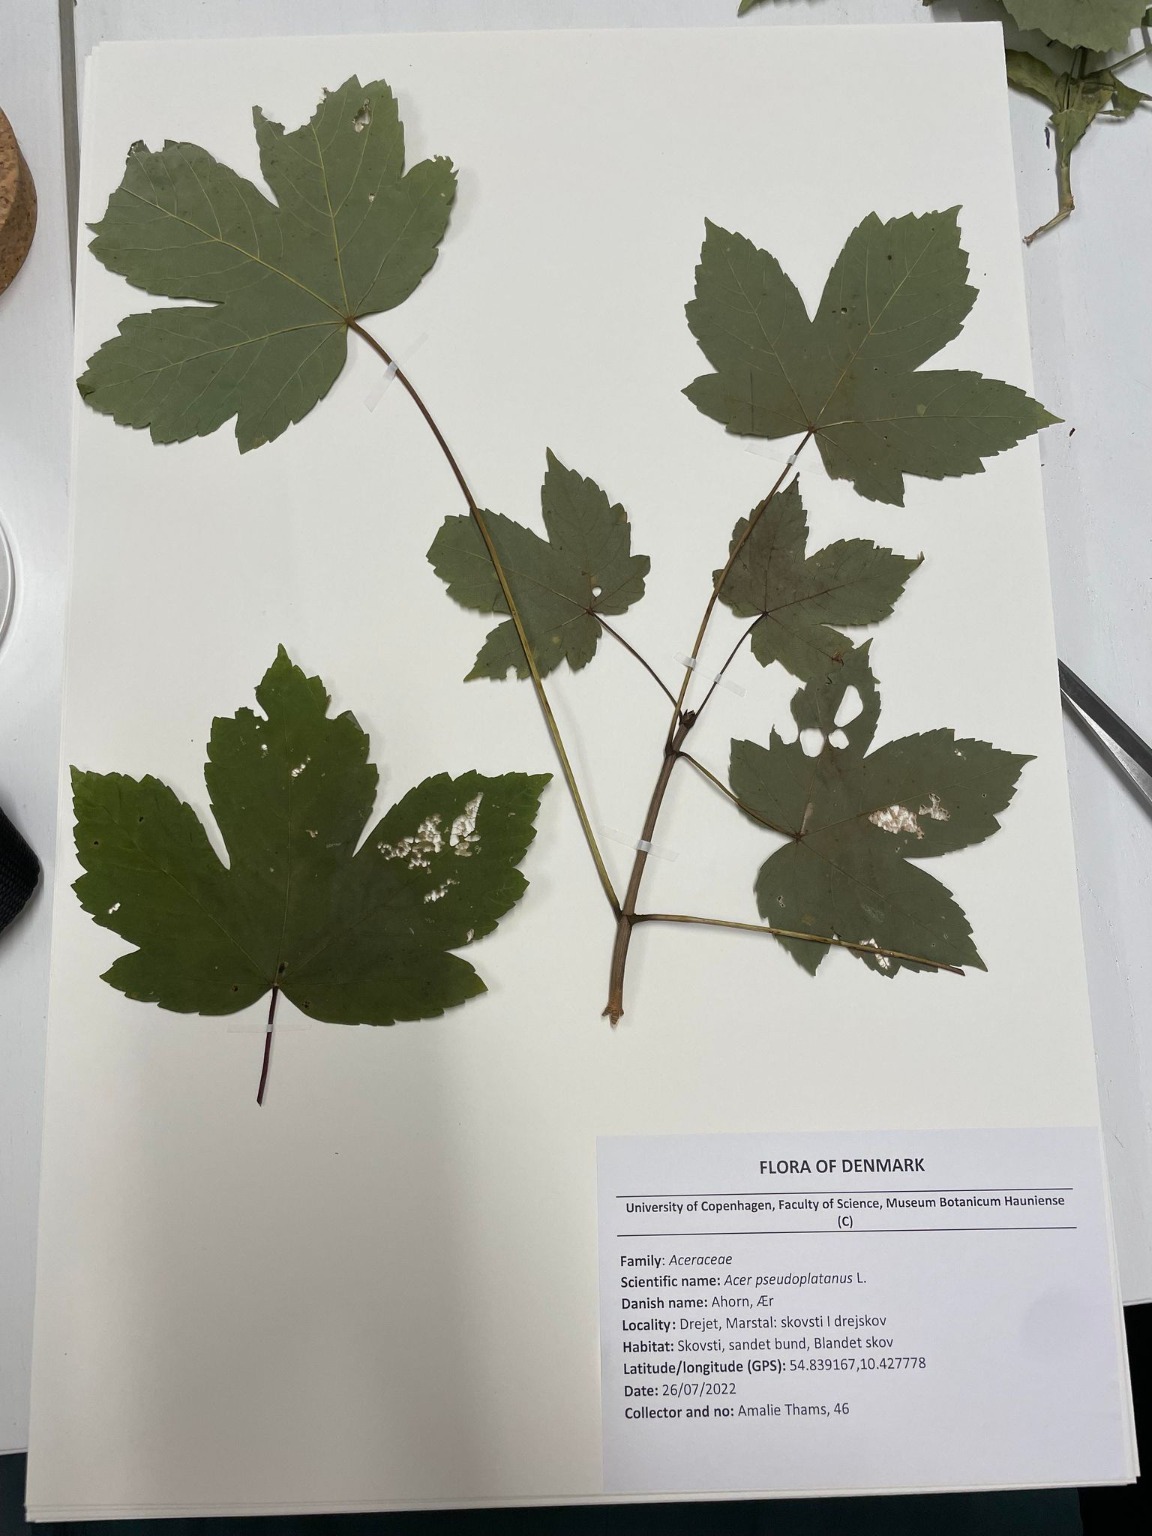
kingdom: Plantae
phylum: Tracheophyta
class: Magnoliopsida
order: Sapindales
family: Sapindaceae
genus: Acer
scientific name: Acer pseudoplatanus
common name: Ahorn
